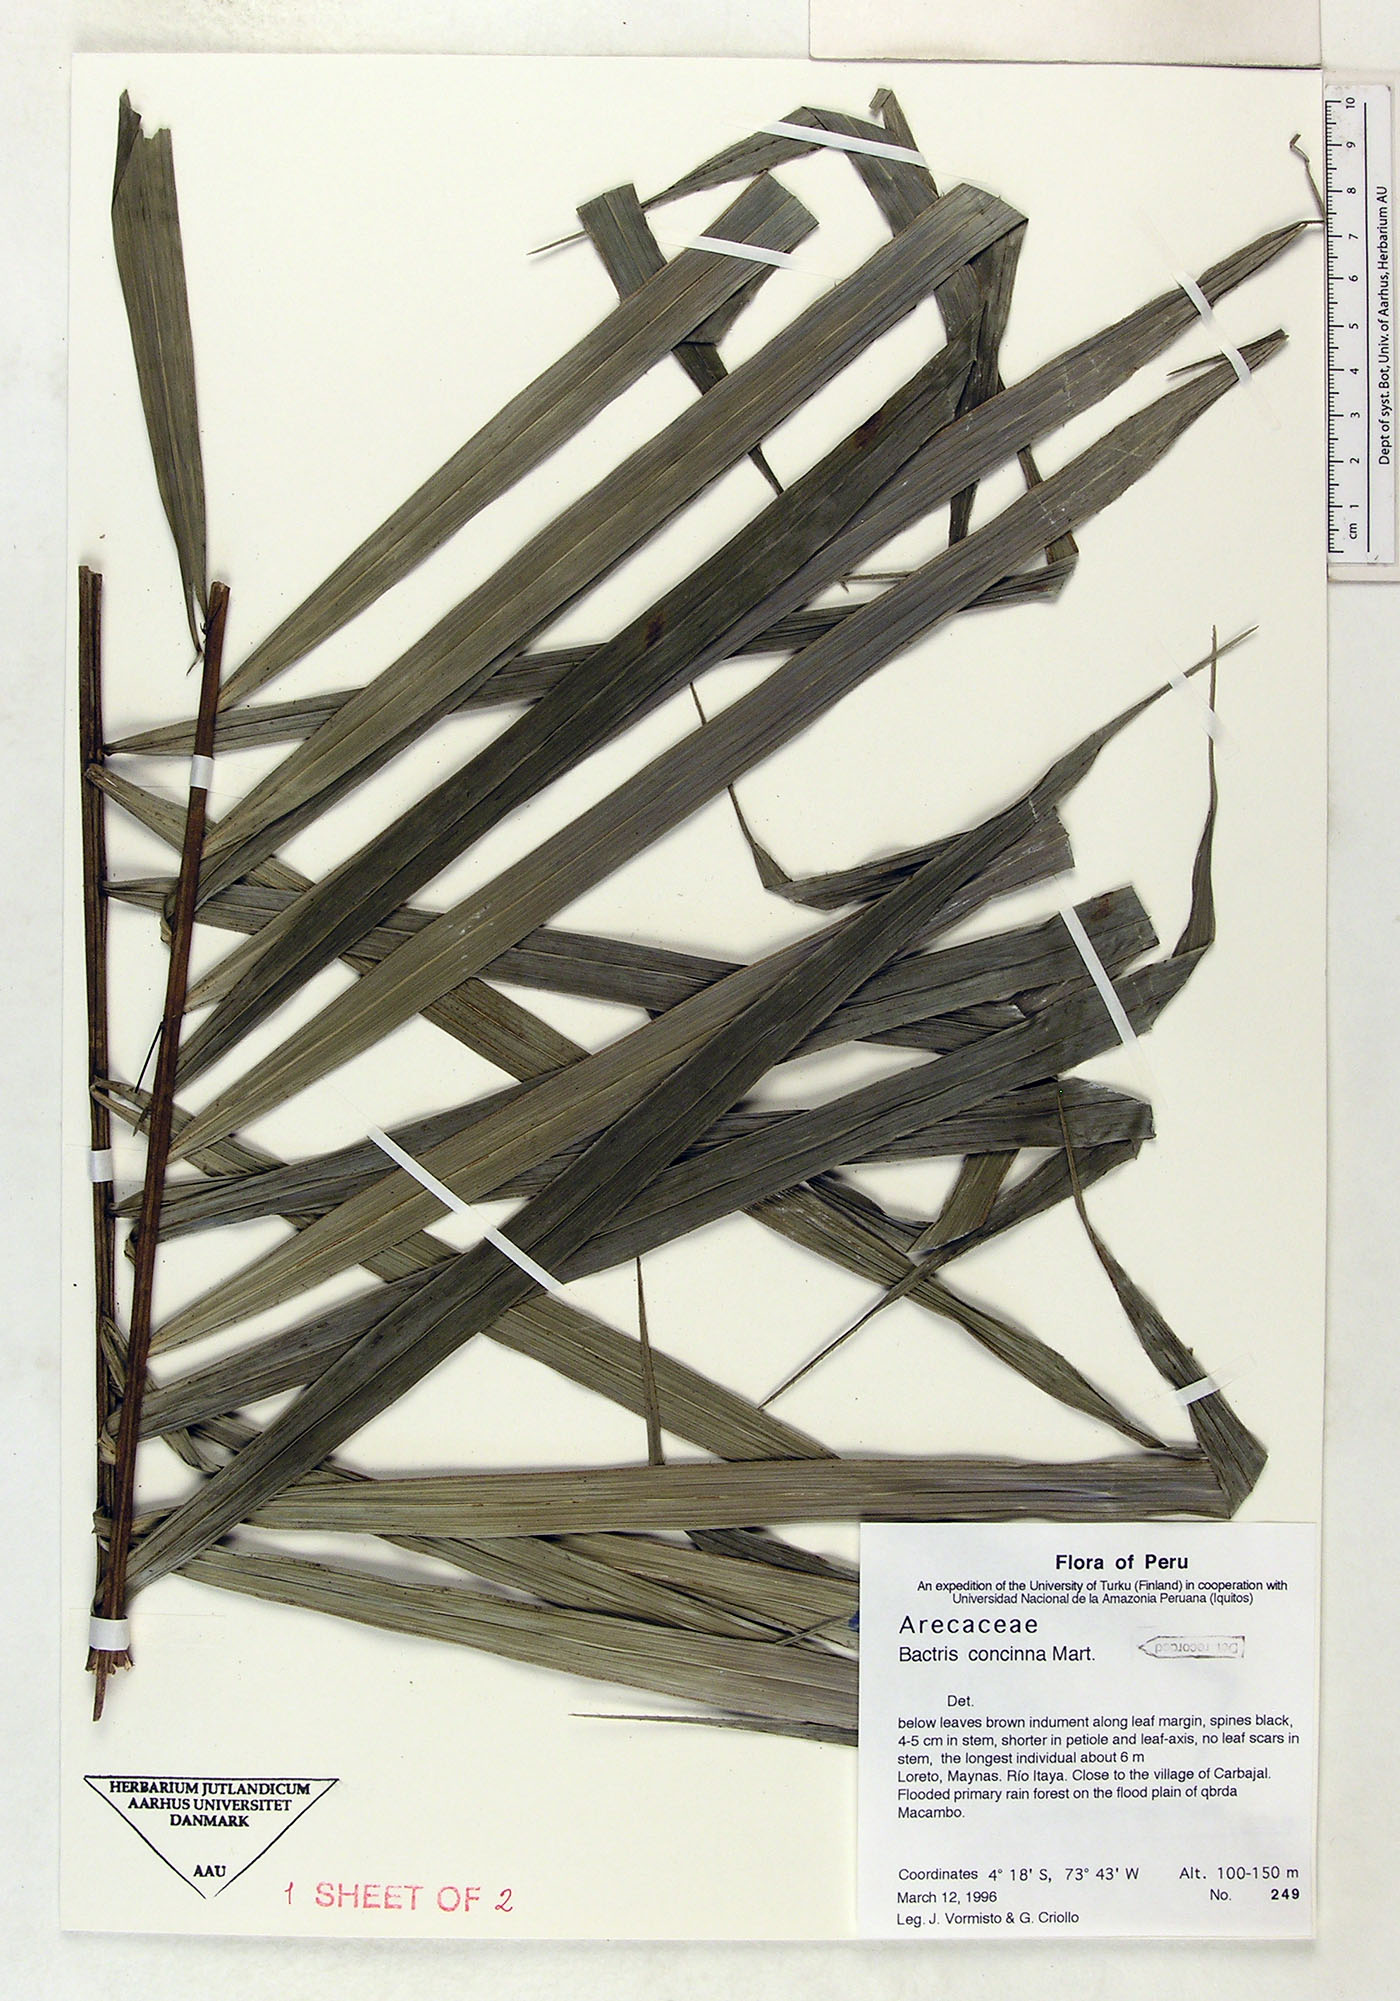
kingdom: Plantae
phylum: Tracheophyta
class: Liliopsida
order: Arecales
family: Arecaceae
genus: Bactris
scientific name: Bactris concinna
